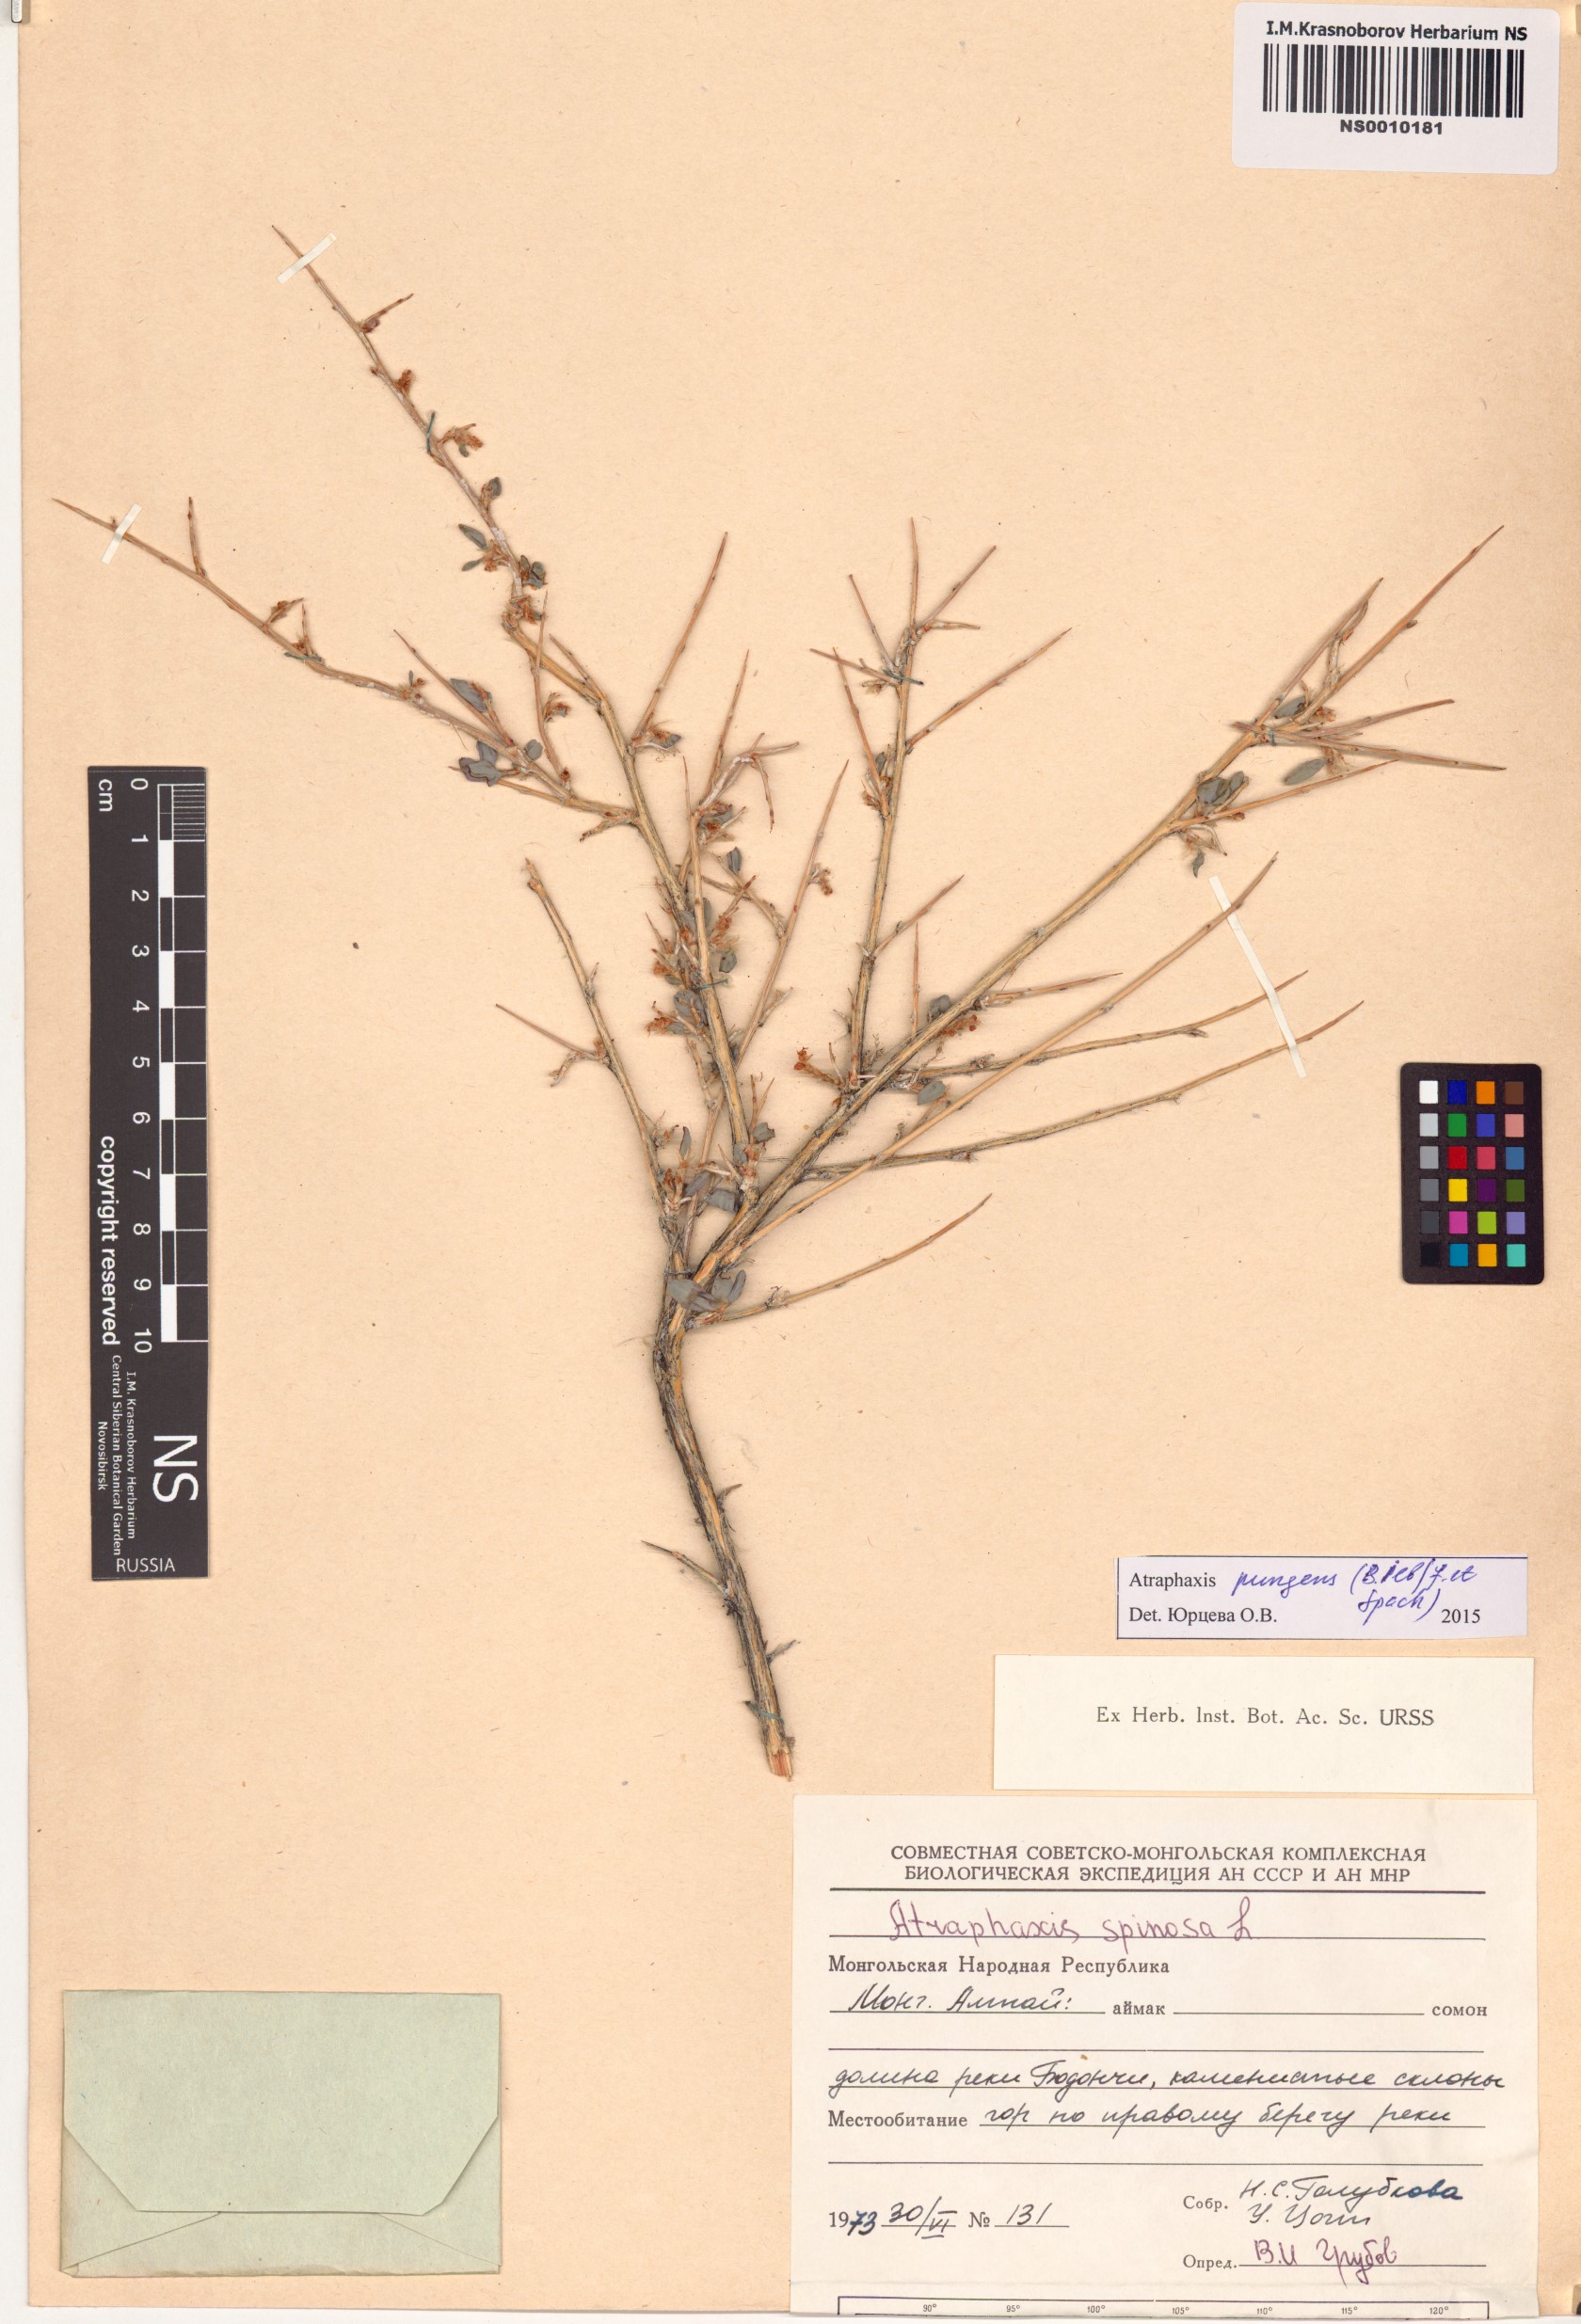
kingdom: Plantae
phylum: Tracheophyta
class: Magnoliopsida
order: Caryophyllales
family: Polygonaceae
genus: Atraphaxis
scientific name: Atraphaxis pungens
